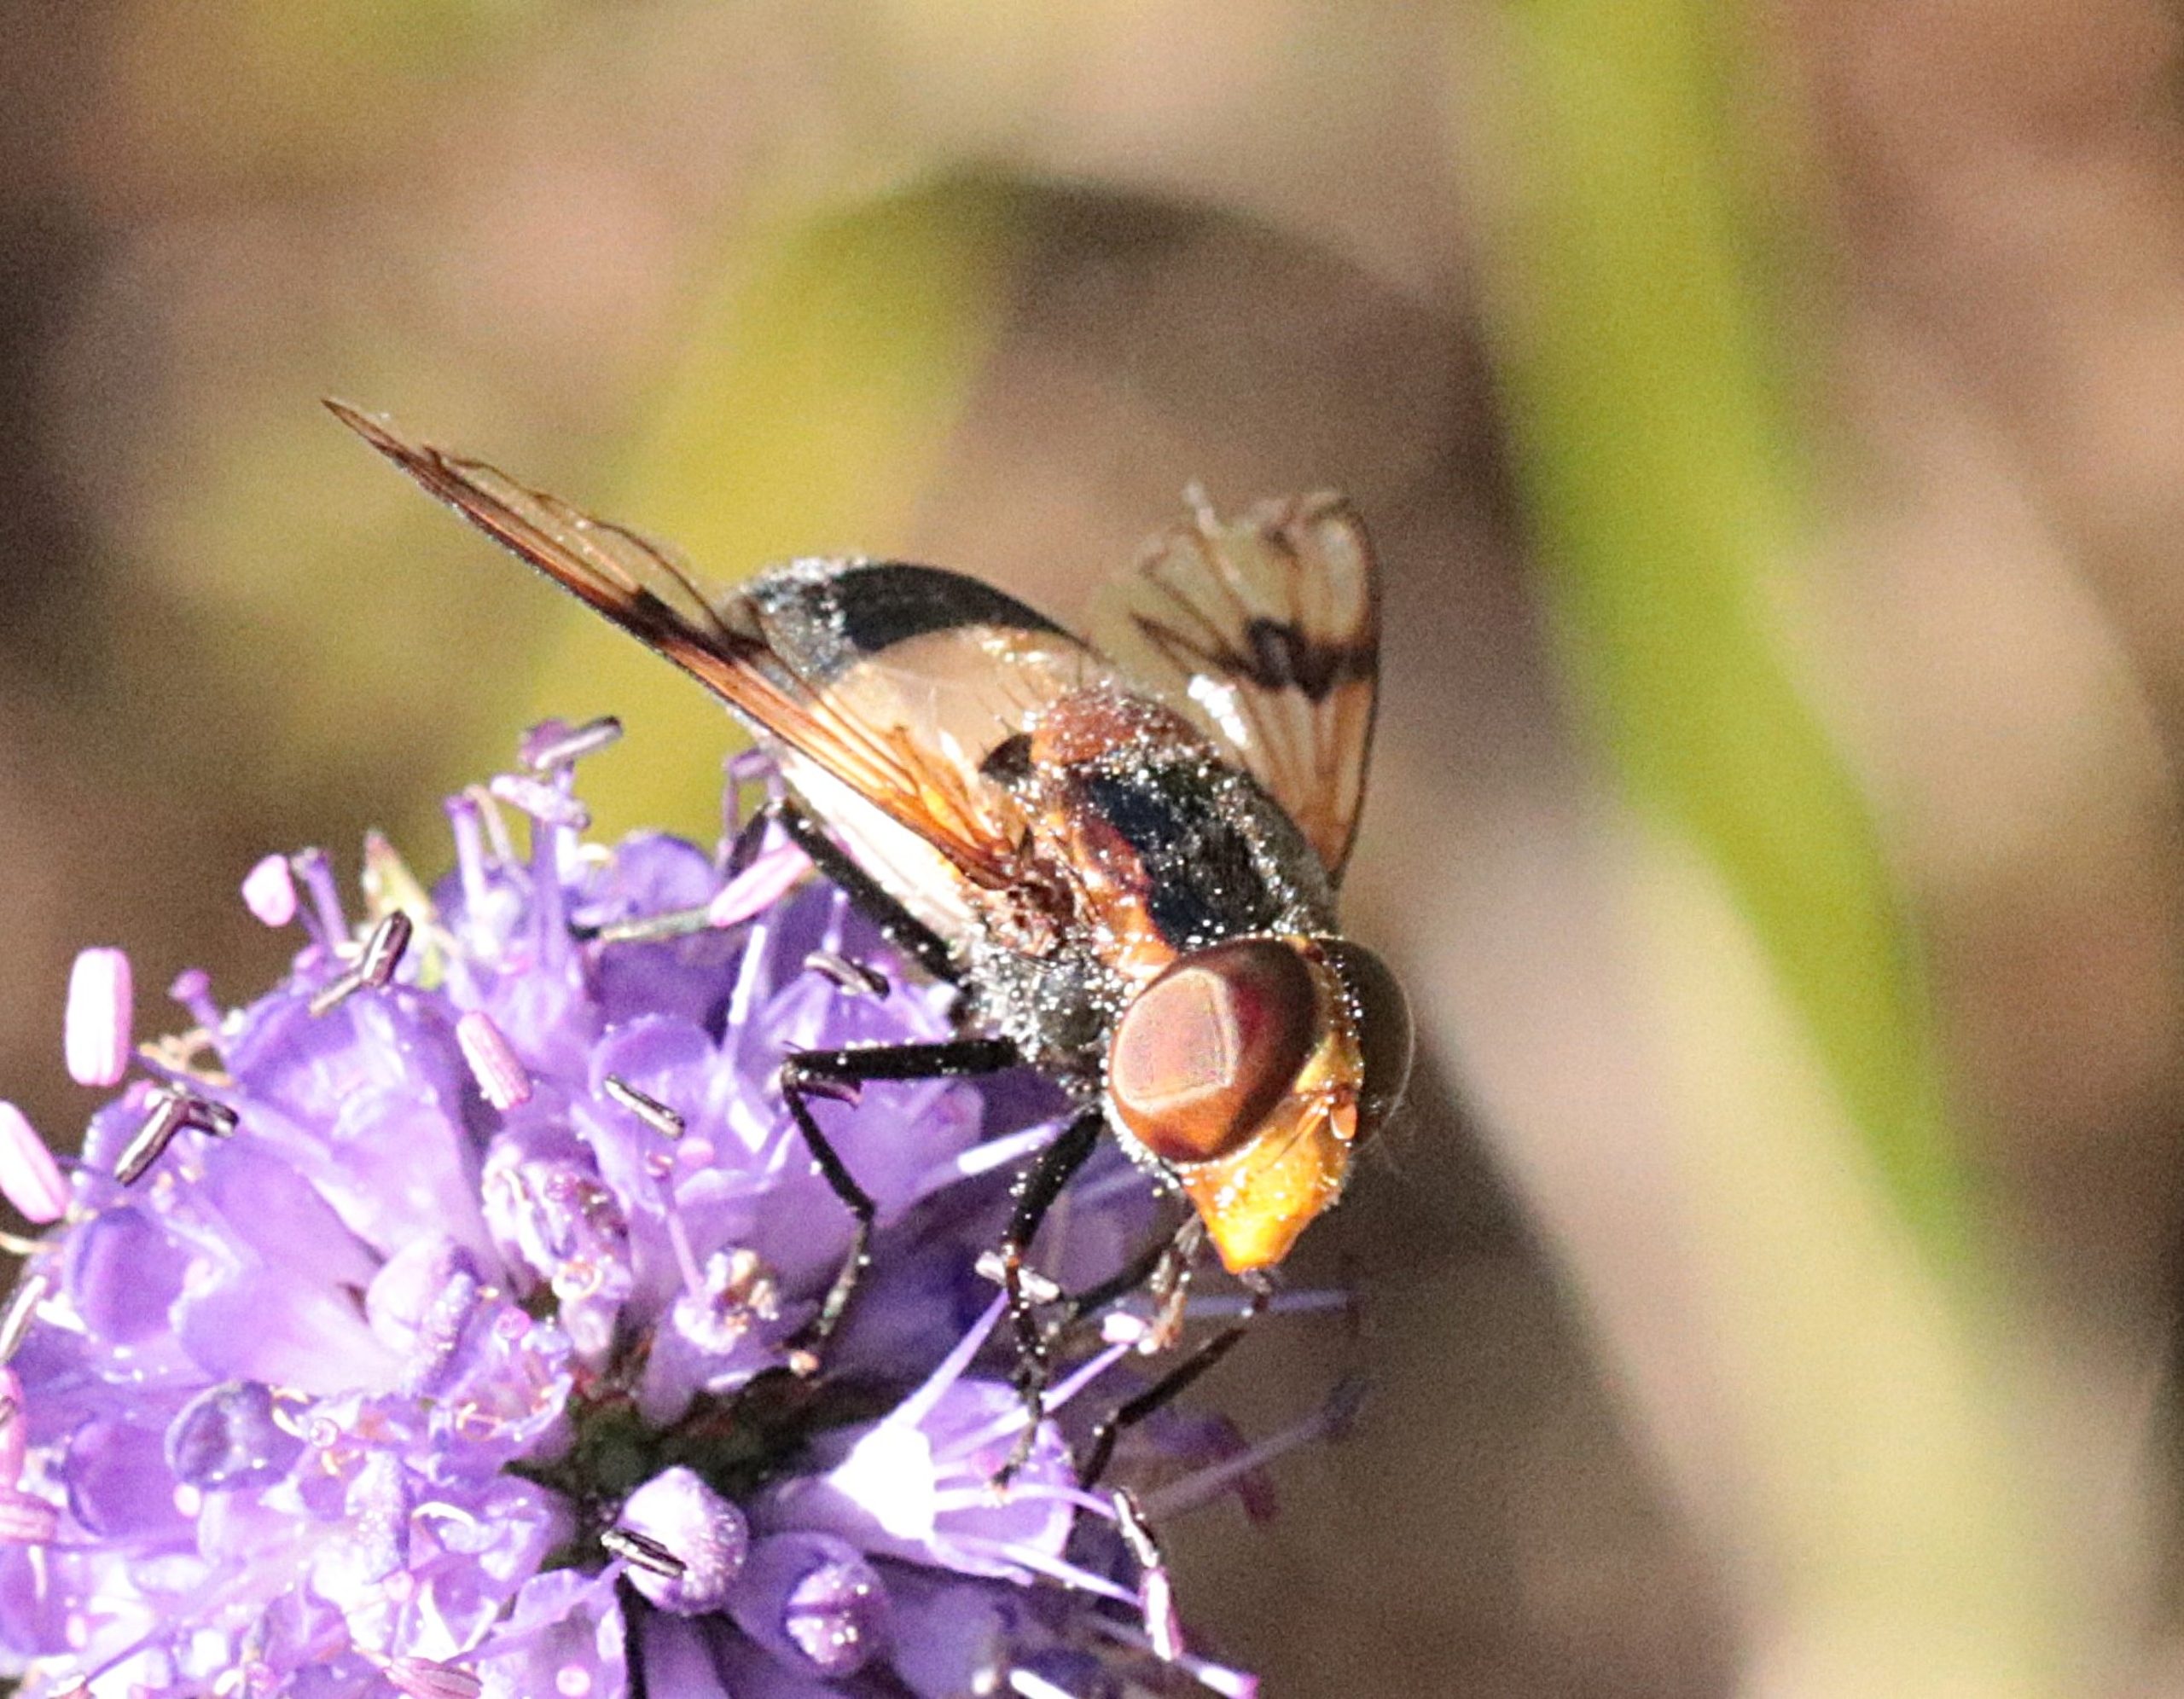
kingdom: Animalia
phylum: Arthropoda
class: Insecta
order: Diptera
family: Syrphidae
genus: Volucella
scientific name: Volucella pellucens
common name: Hvidbåndet humlesvirreflue
